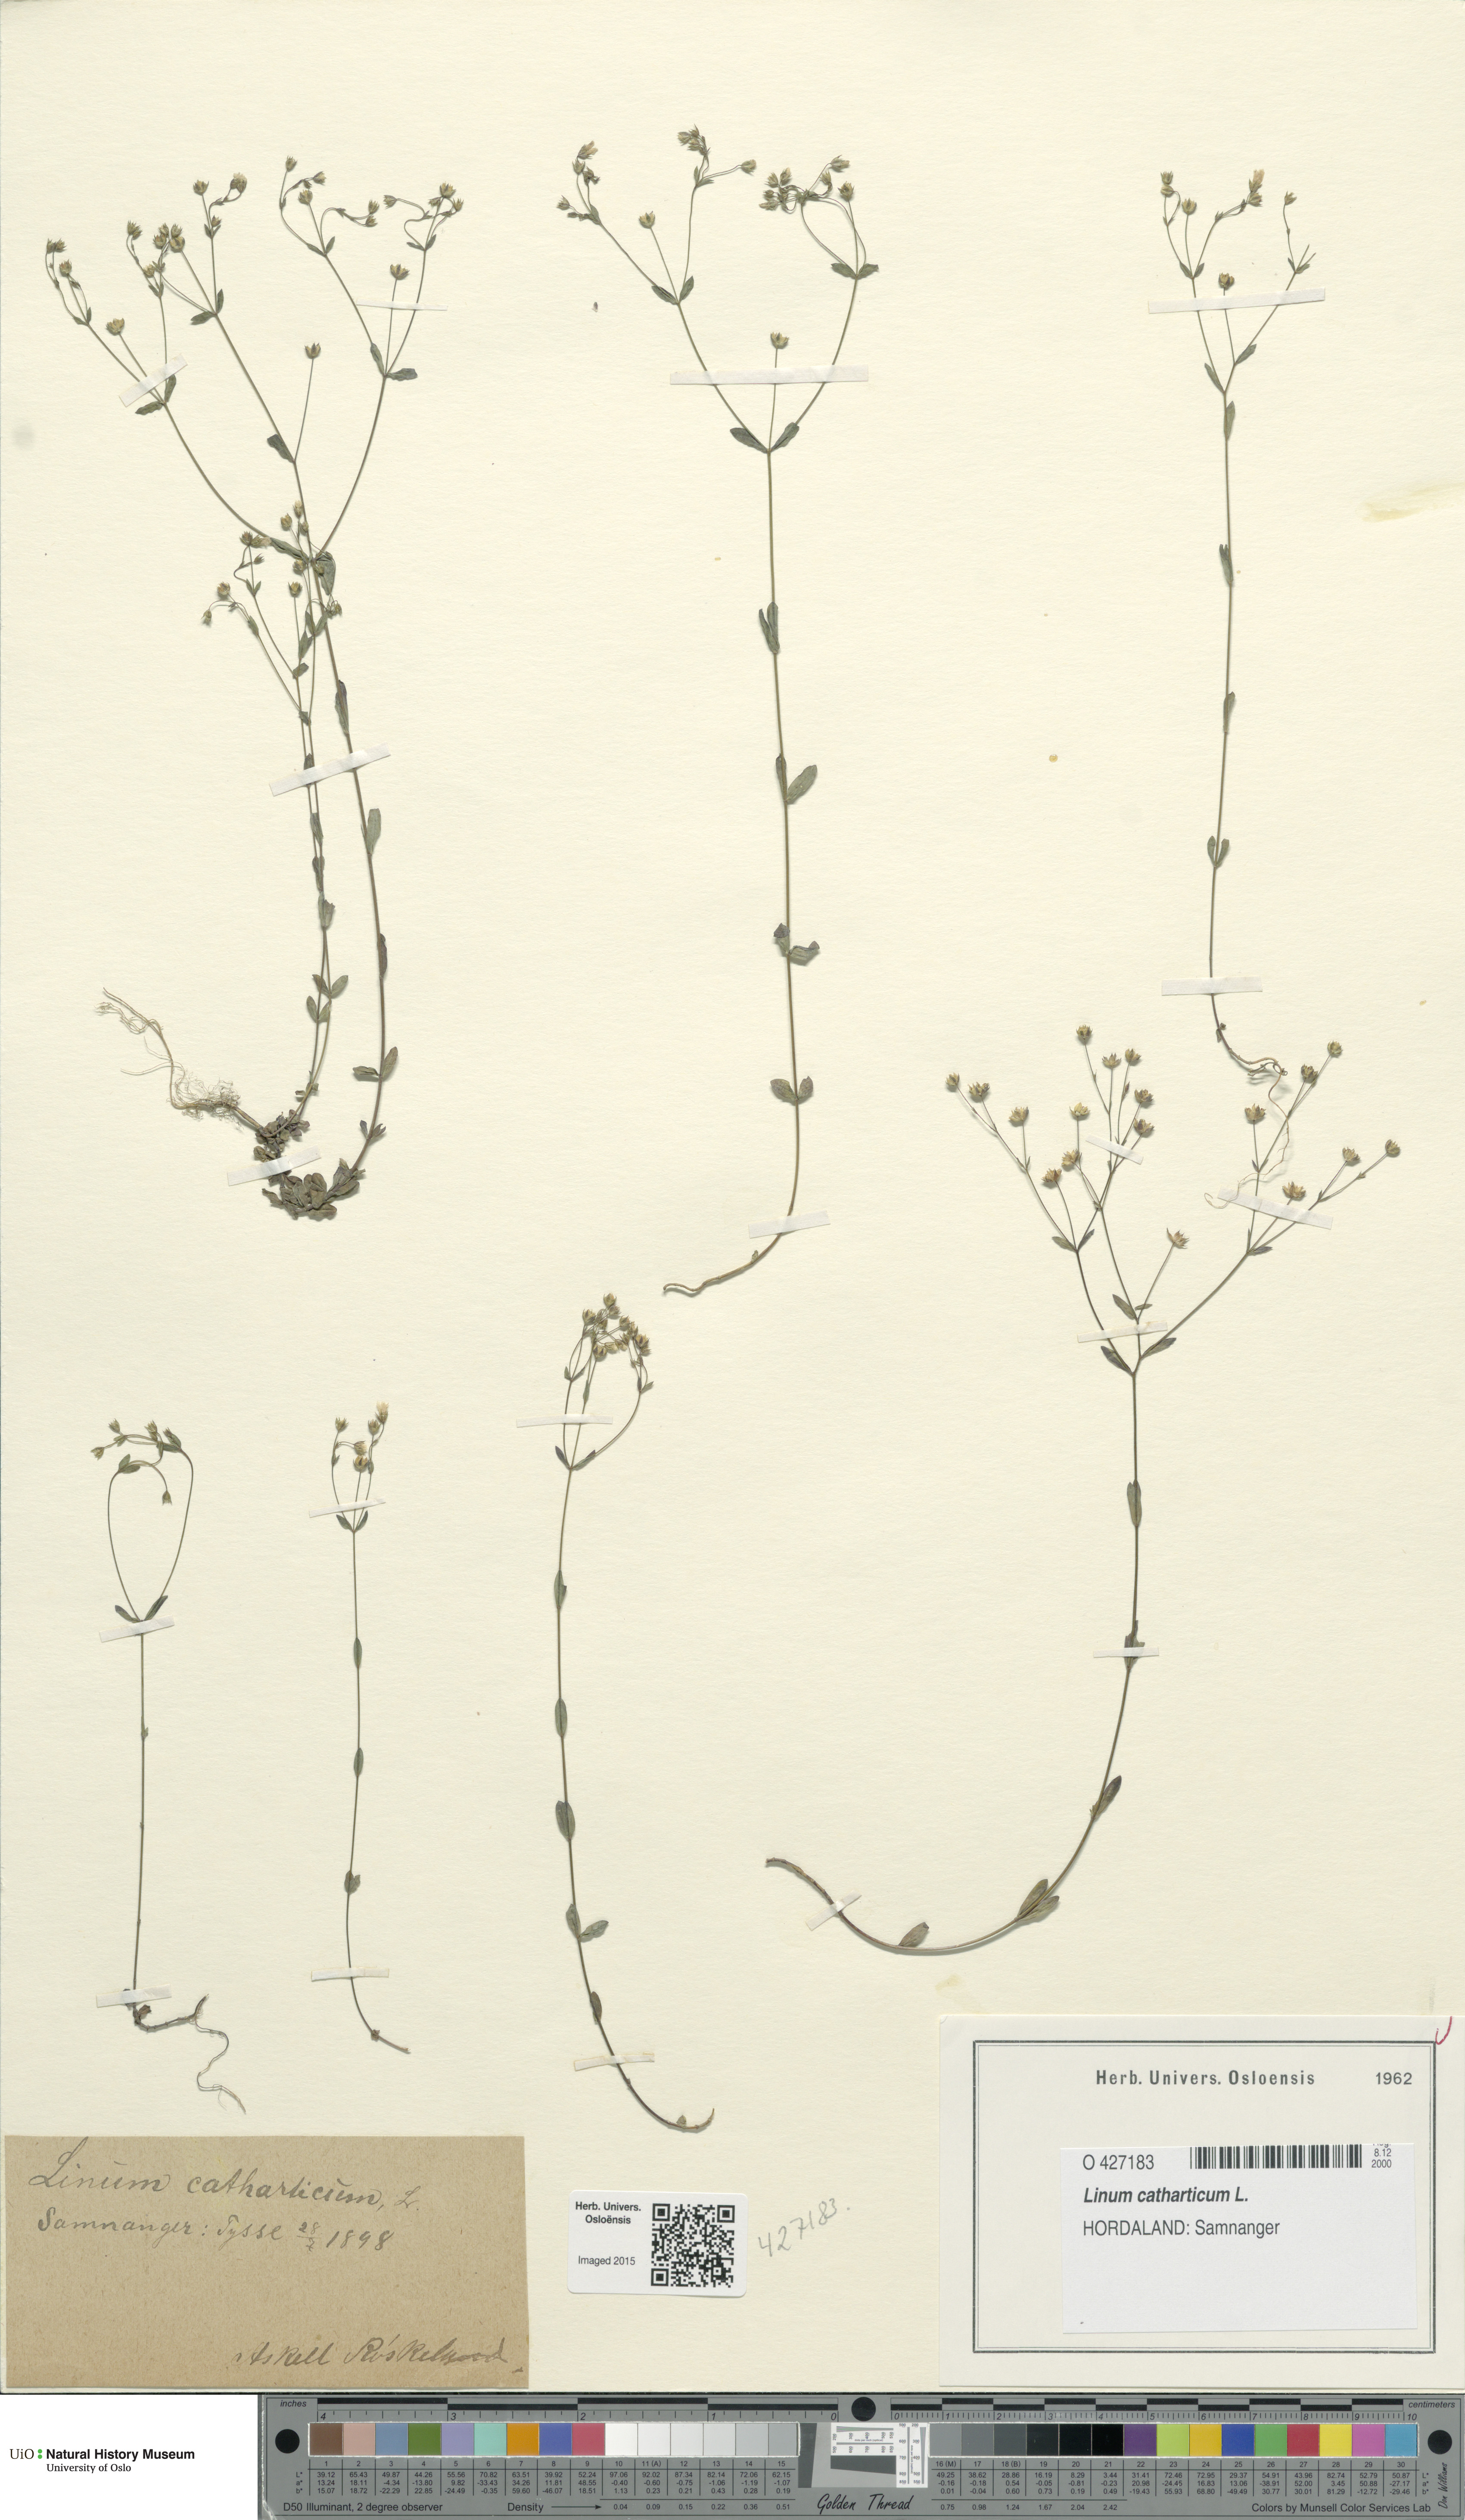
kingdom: Plantae
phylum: Tracheophyta
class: Magnoliopsida
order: Malpighiales
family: Linaceae
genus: Linum
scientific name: Linum catharticum
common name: Fairy flax
